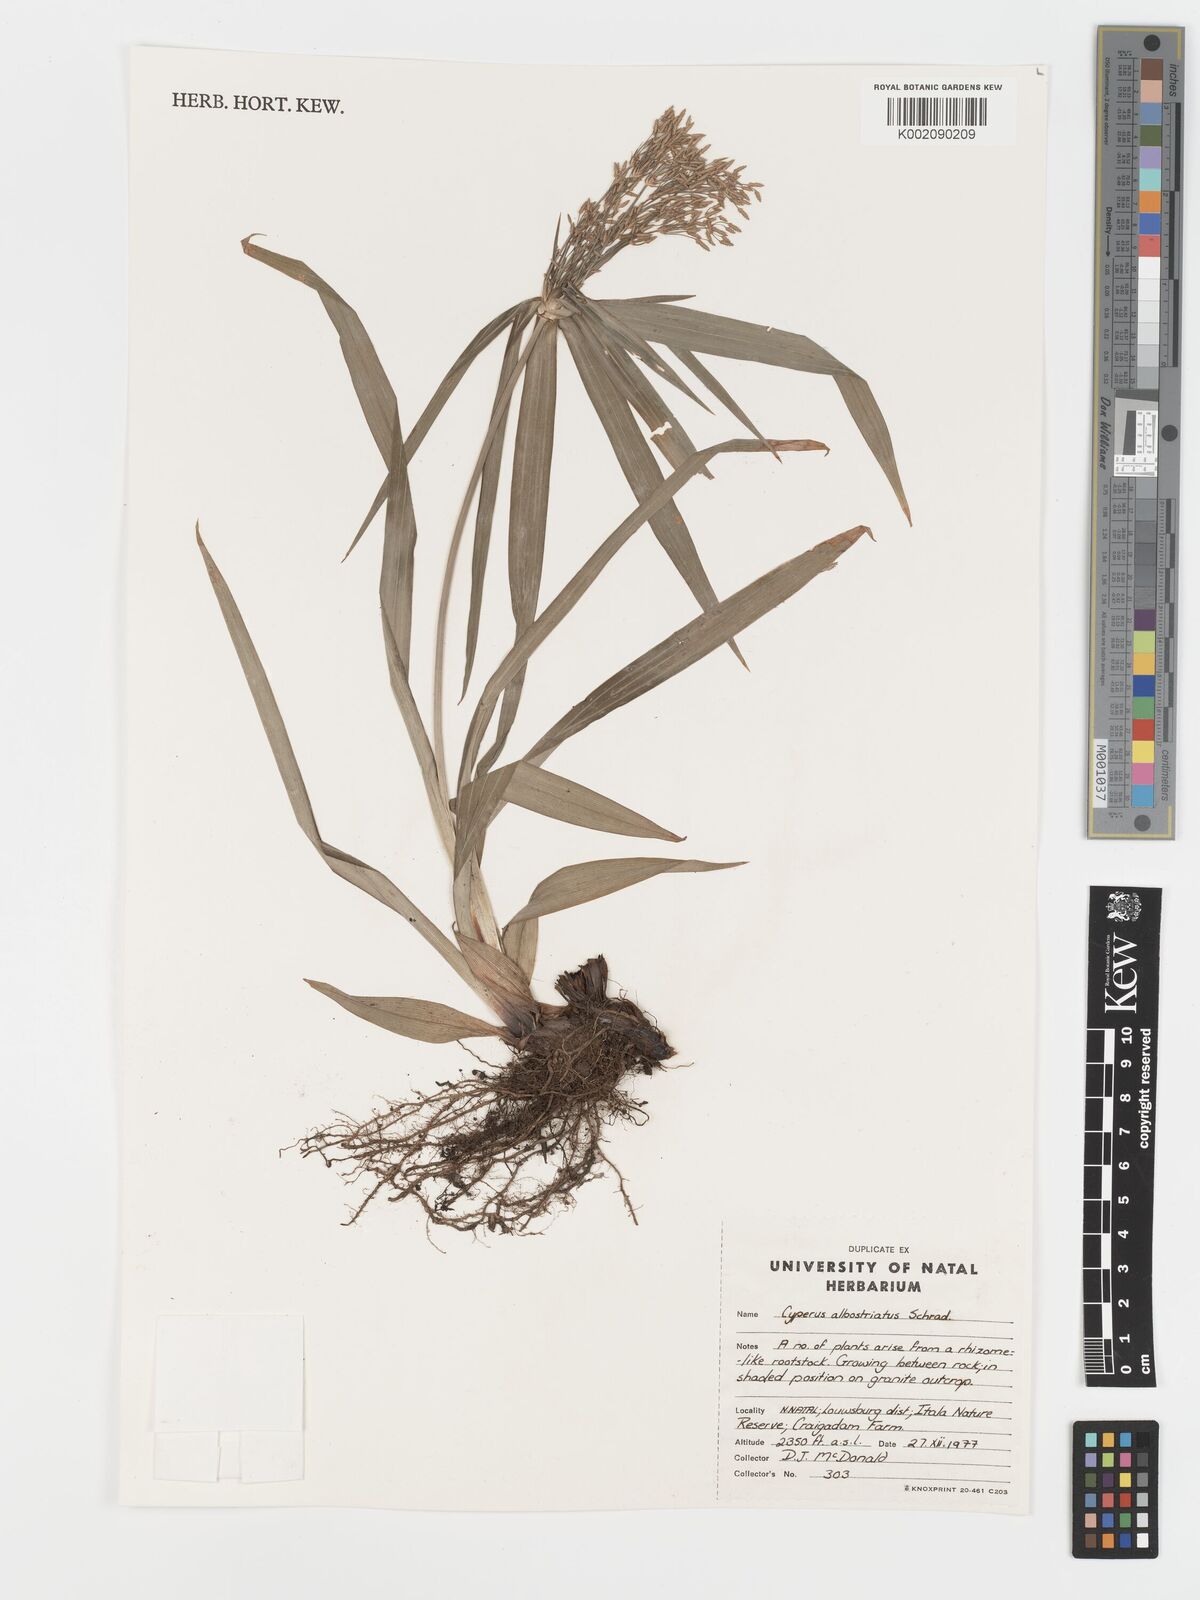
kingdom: Plantae
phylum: Tracheophyta
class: Liliopsida
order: Poales
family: Cyperaceae
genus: Cyperus
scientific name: Cyperus albostriatus
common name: Dwarf umbrella-grass
